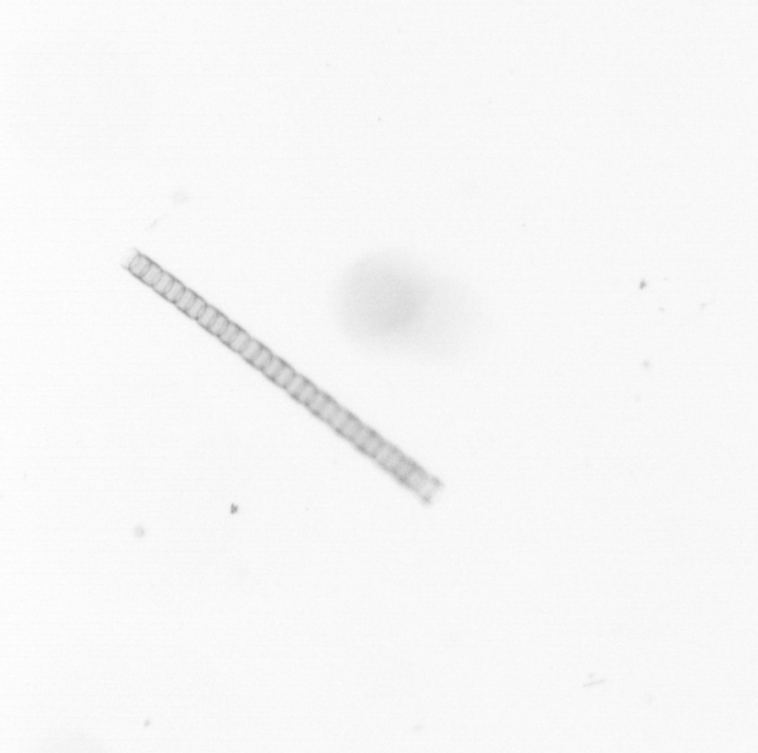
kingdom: Chromista
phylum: Ochrophyta
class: Bacillariophyceae
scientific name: Bacillariophyceae
